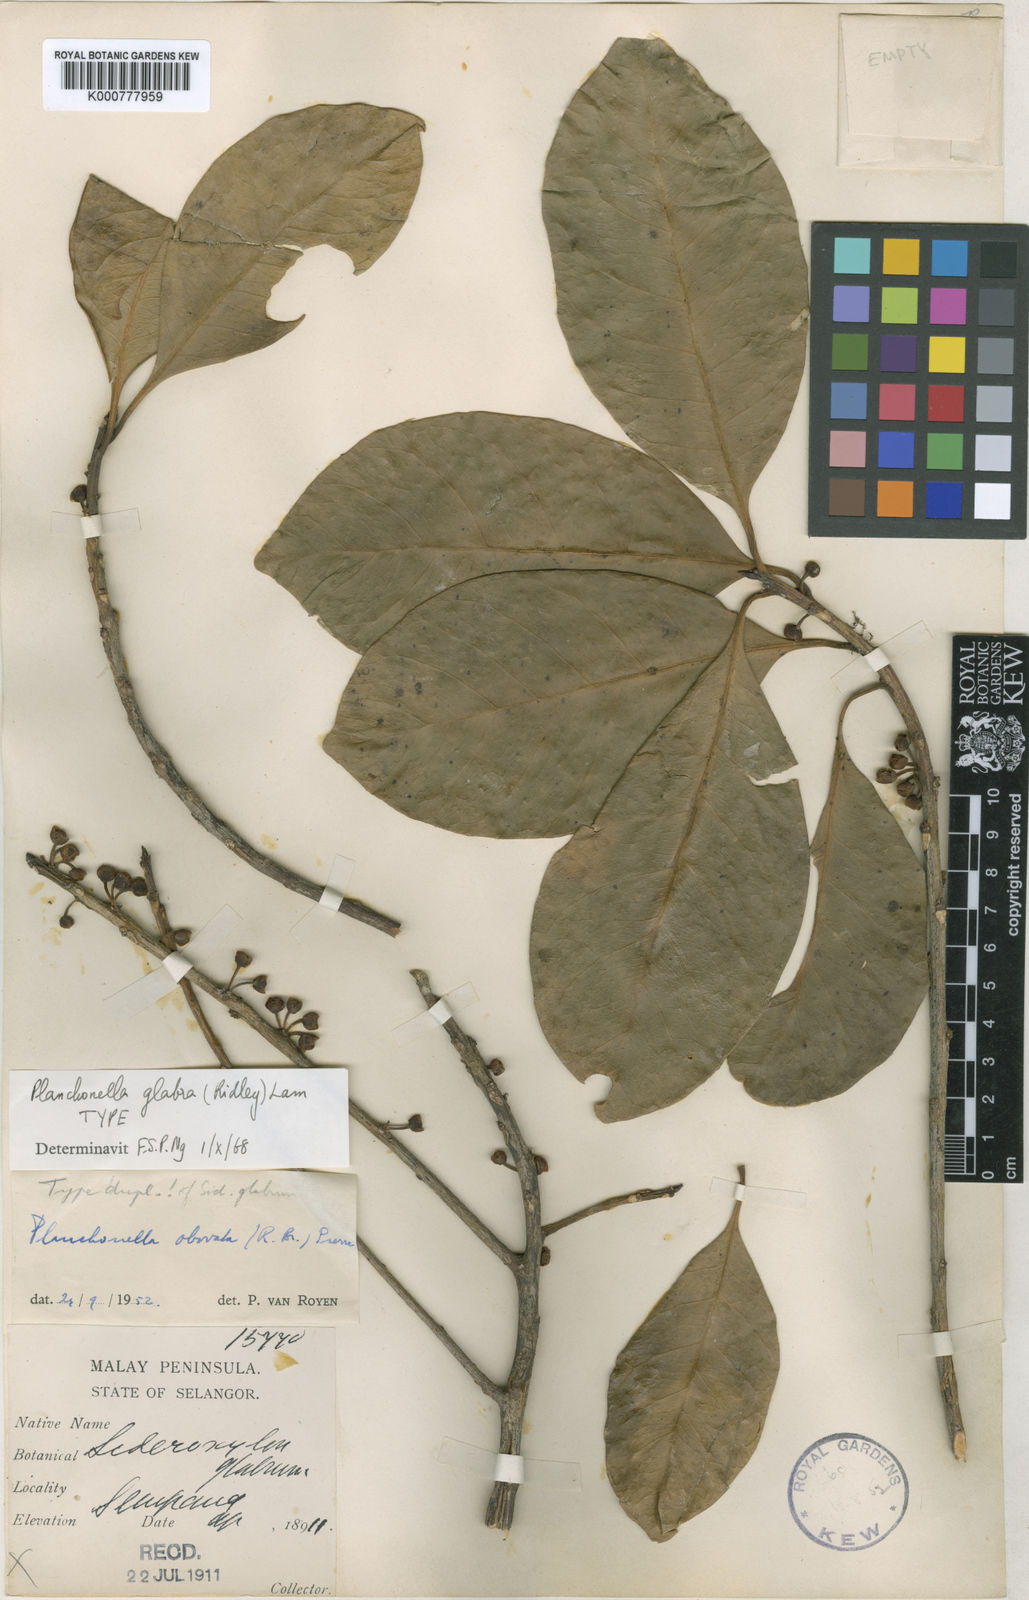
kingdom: Plantae
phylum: Tracheophyta
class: Magnoliopsida
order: Ericales
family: Sapotaceae
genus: Planchonella
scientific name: Planchonella obovata
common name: Black-ash
